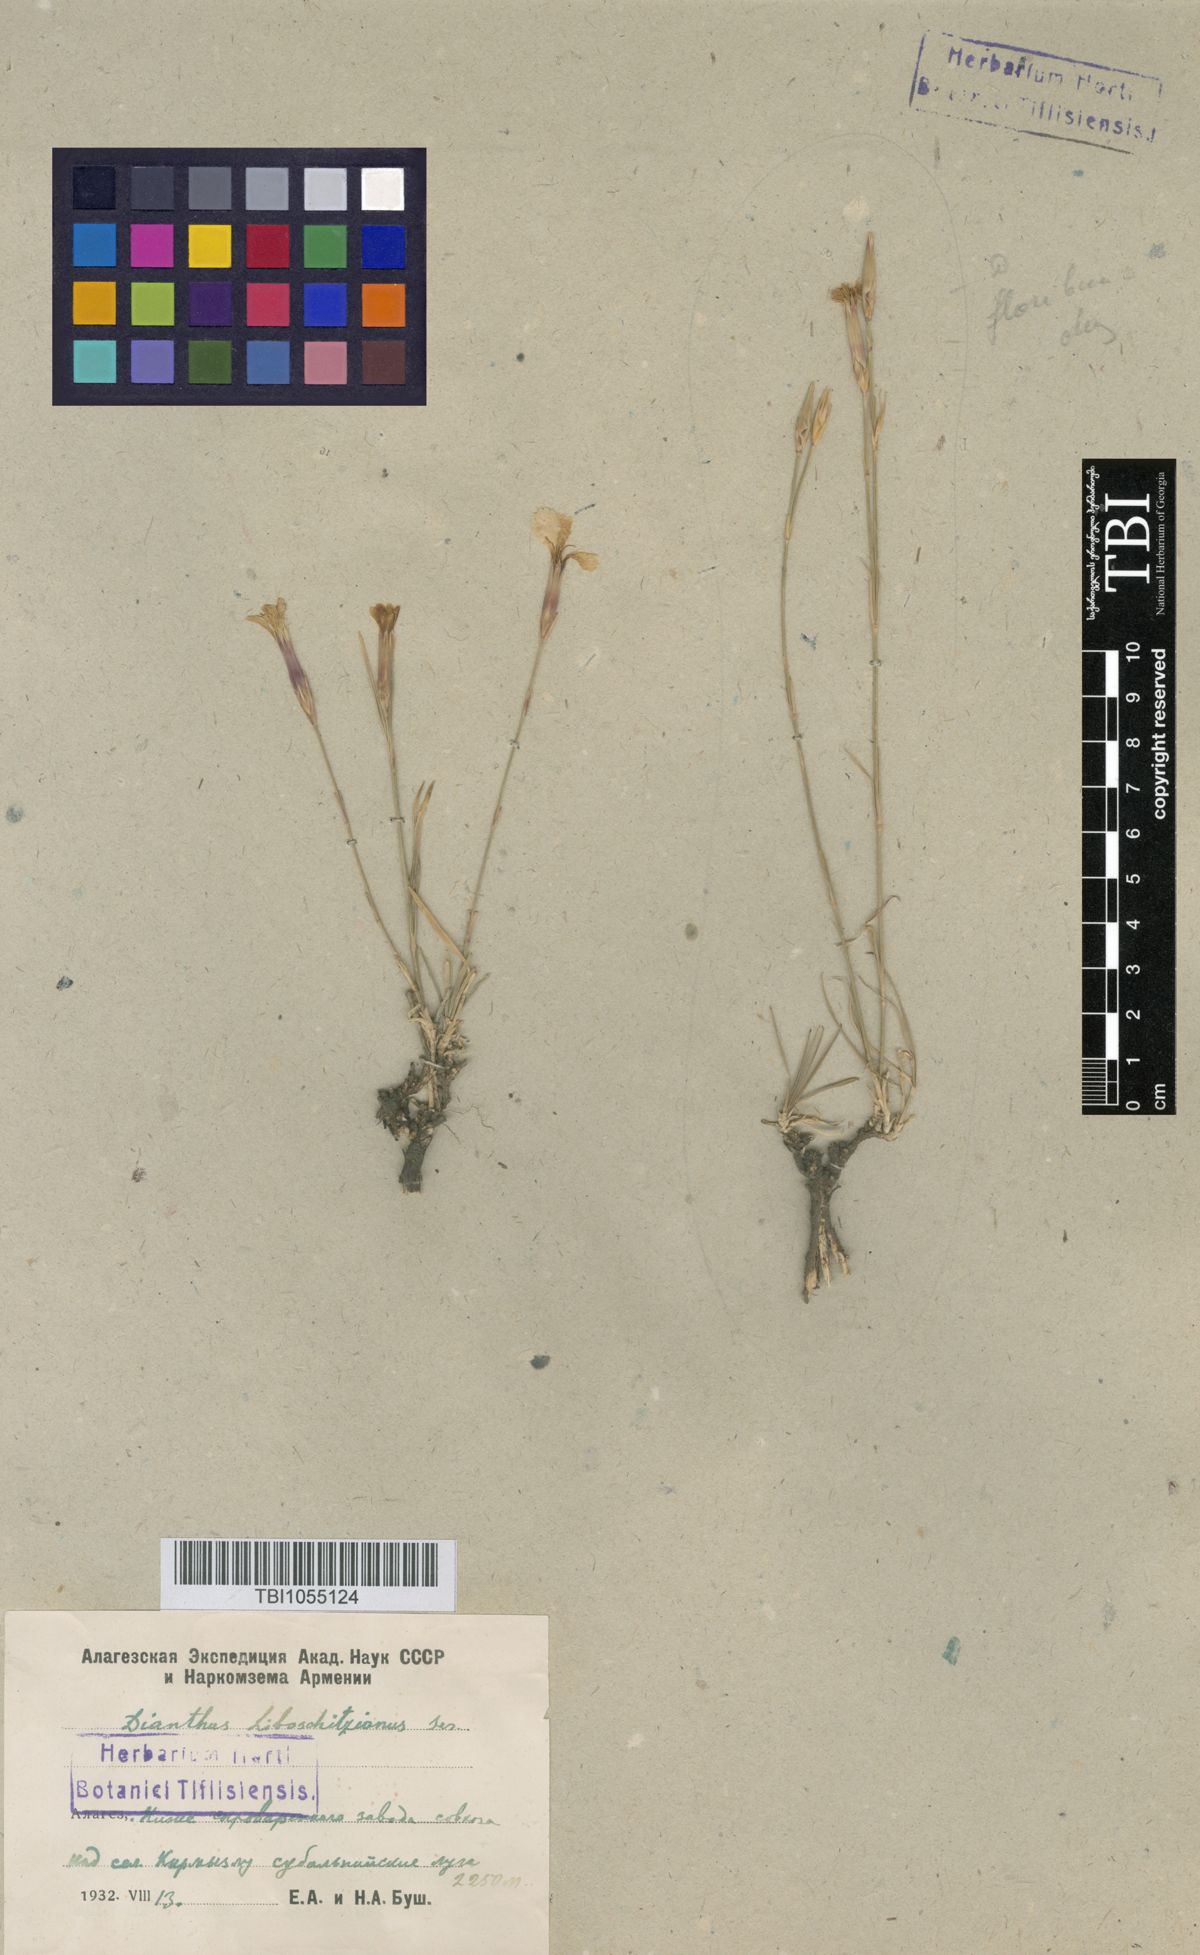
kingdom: Plantae
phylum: Tracheophyta
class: Magnoliopsida
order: Caryophyllales
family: Caryophyllaceae
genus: Dianthus
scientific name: Dianthus cretaceus
